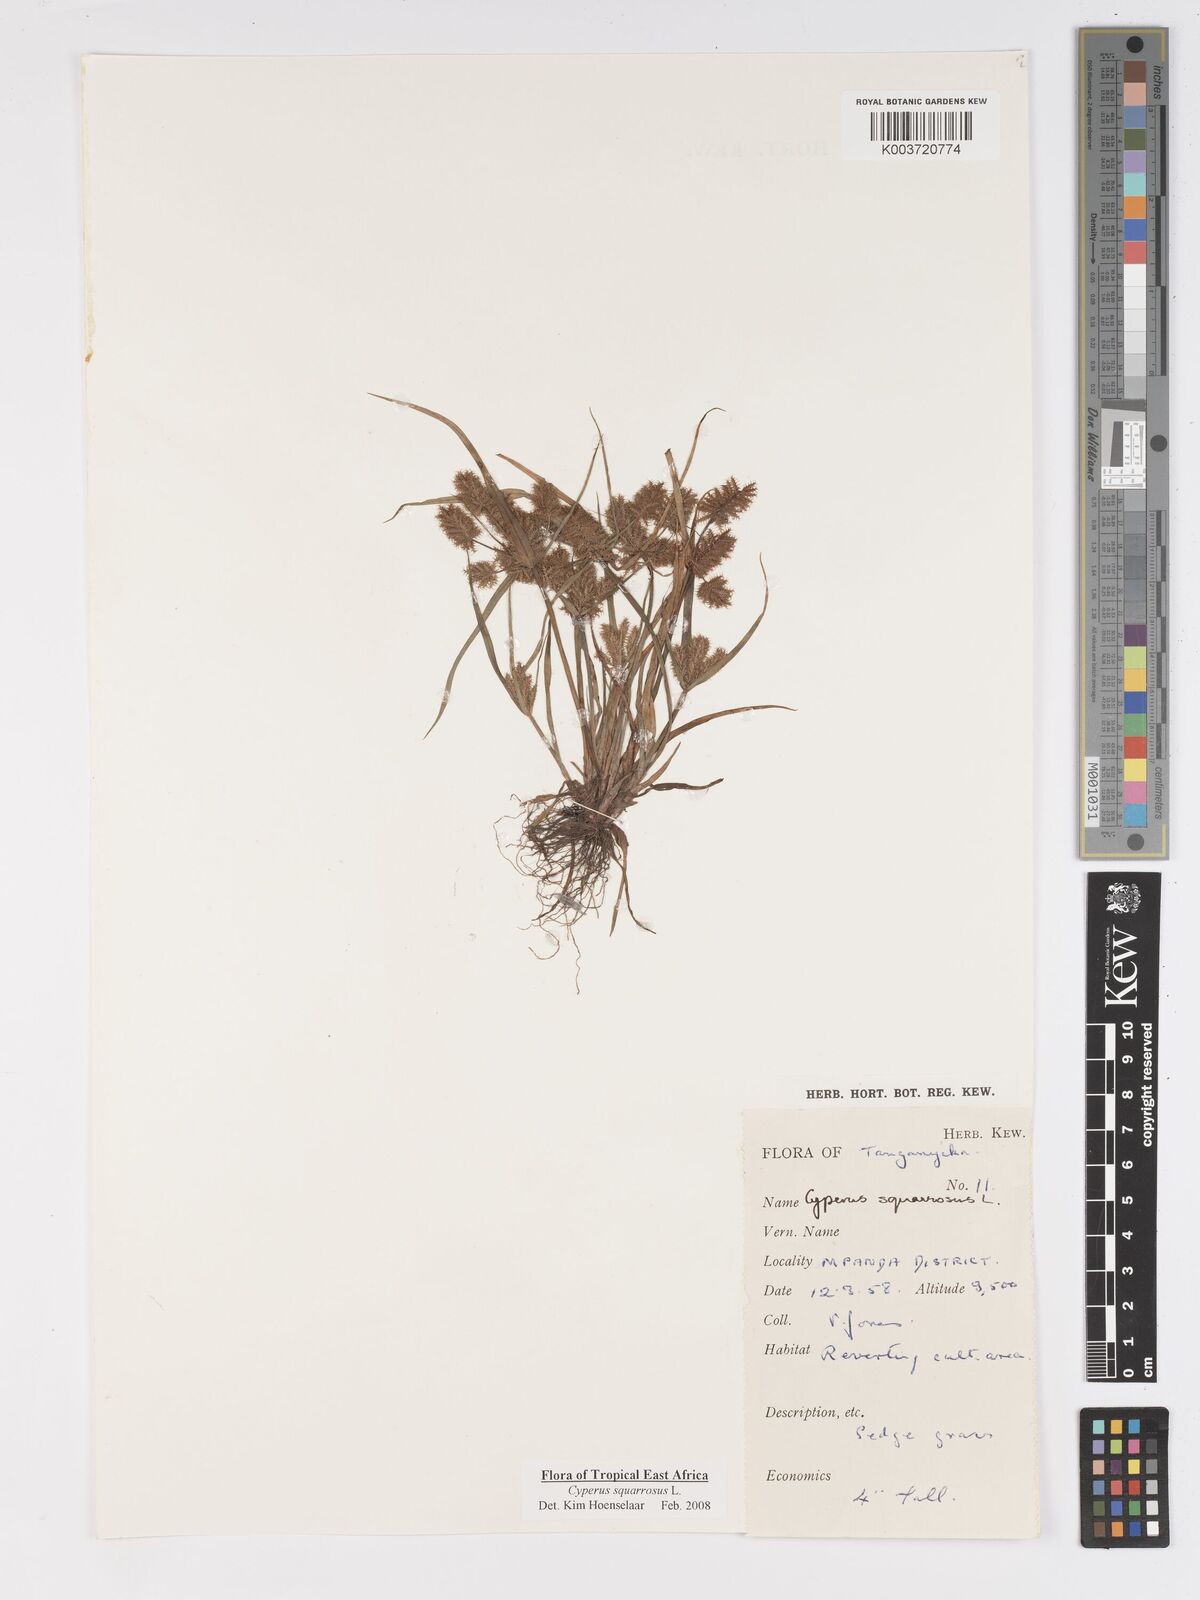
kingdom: Plantae
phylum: Tracheophyta
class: Liliopsida
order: Poales
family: Cyperaceae
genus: Cyperus
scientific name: Cyperus squarrosus
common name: Awned cyperus
